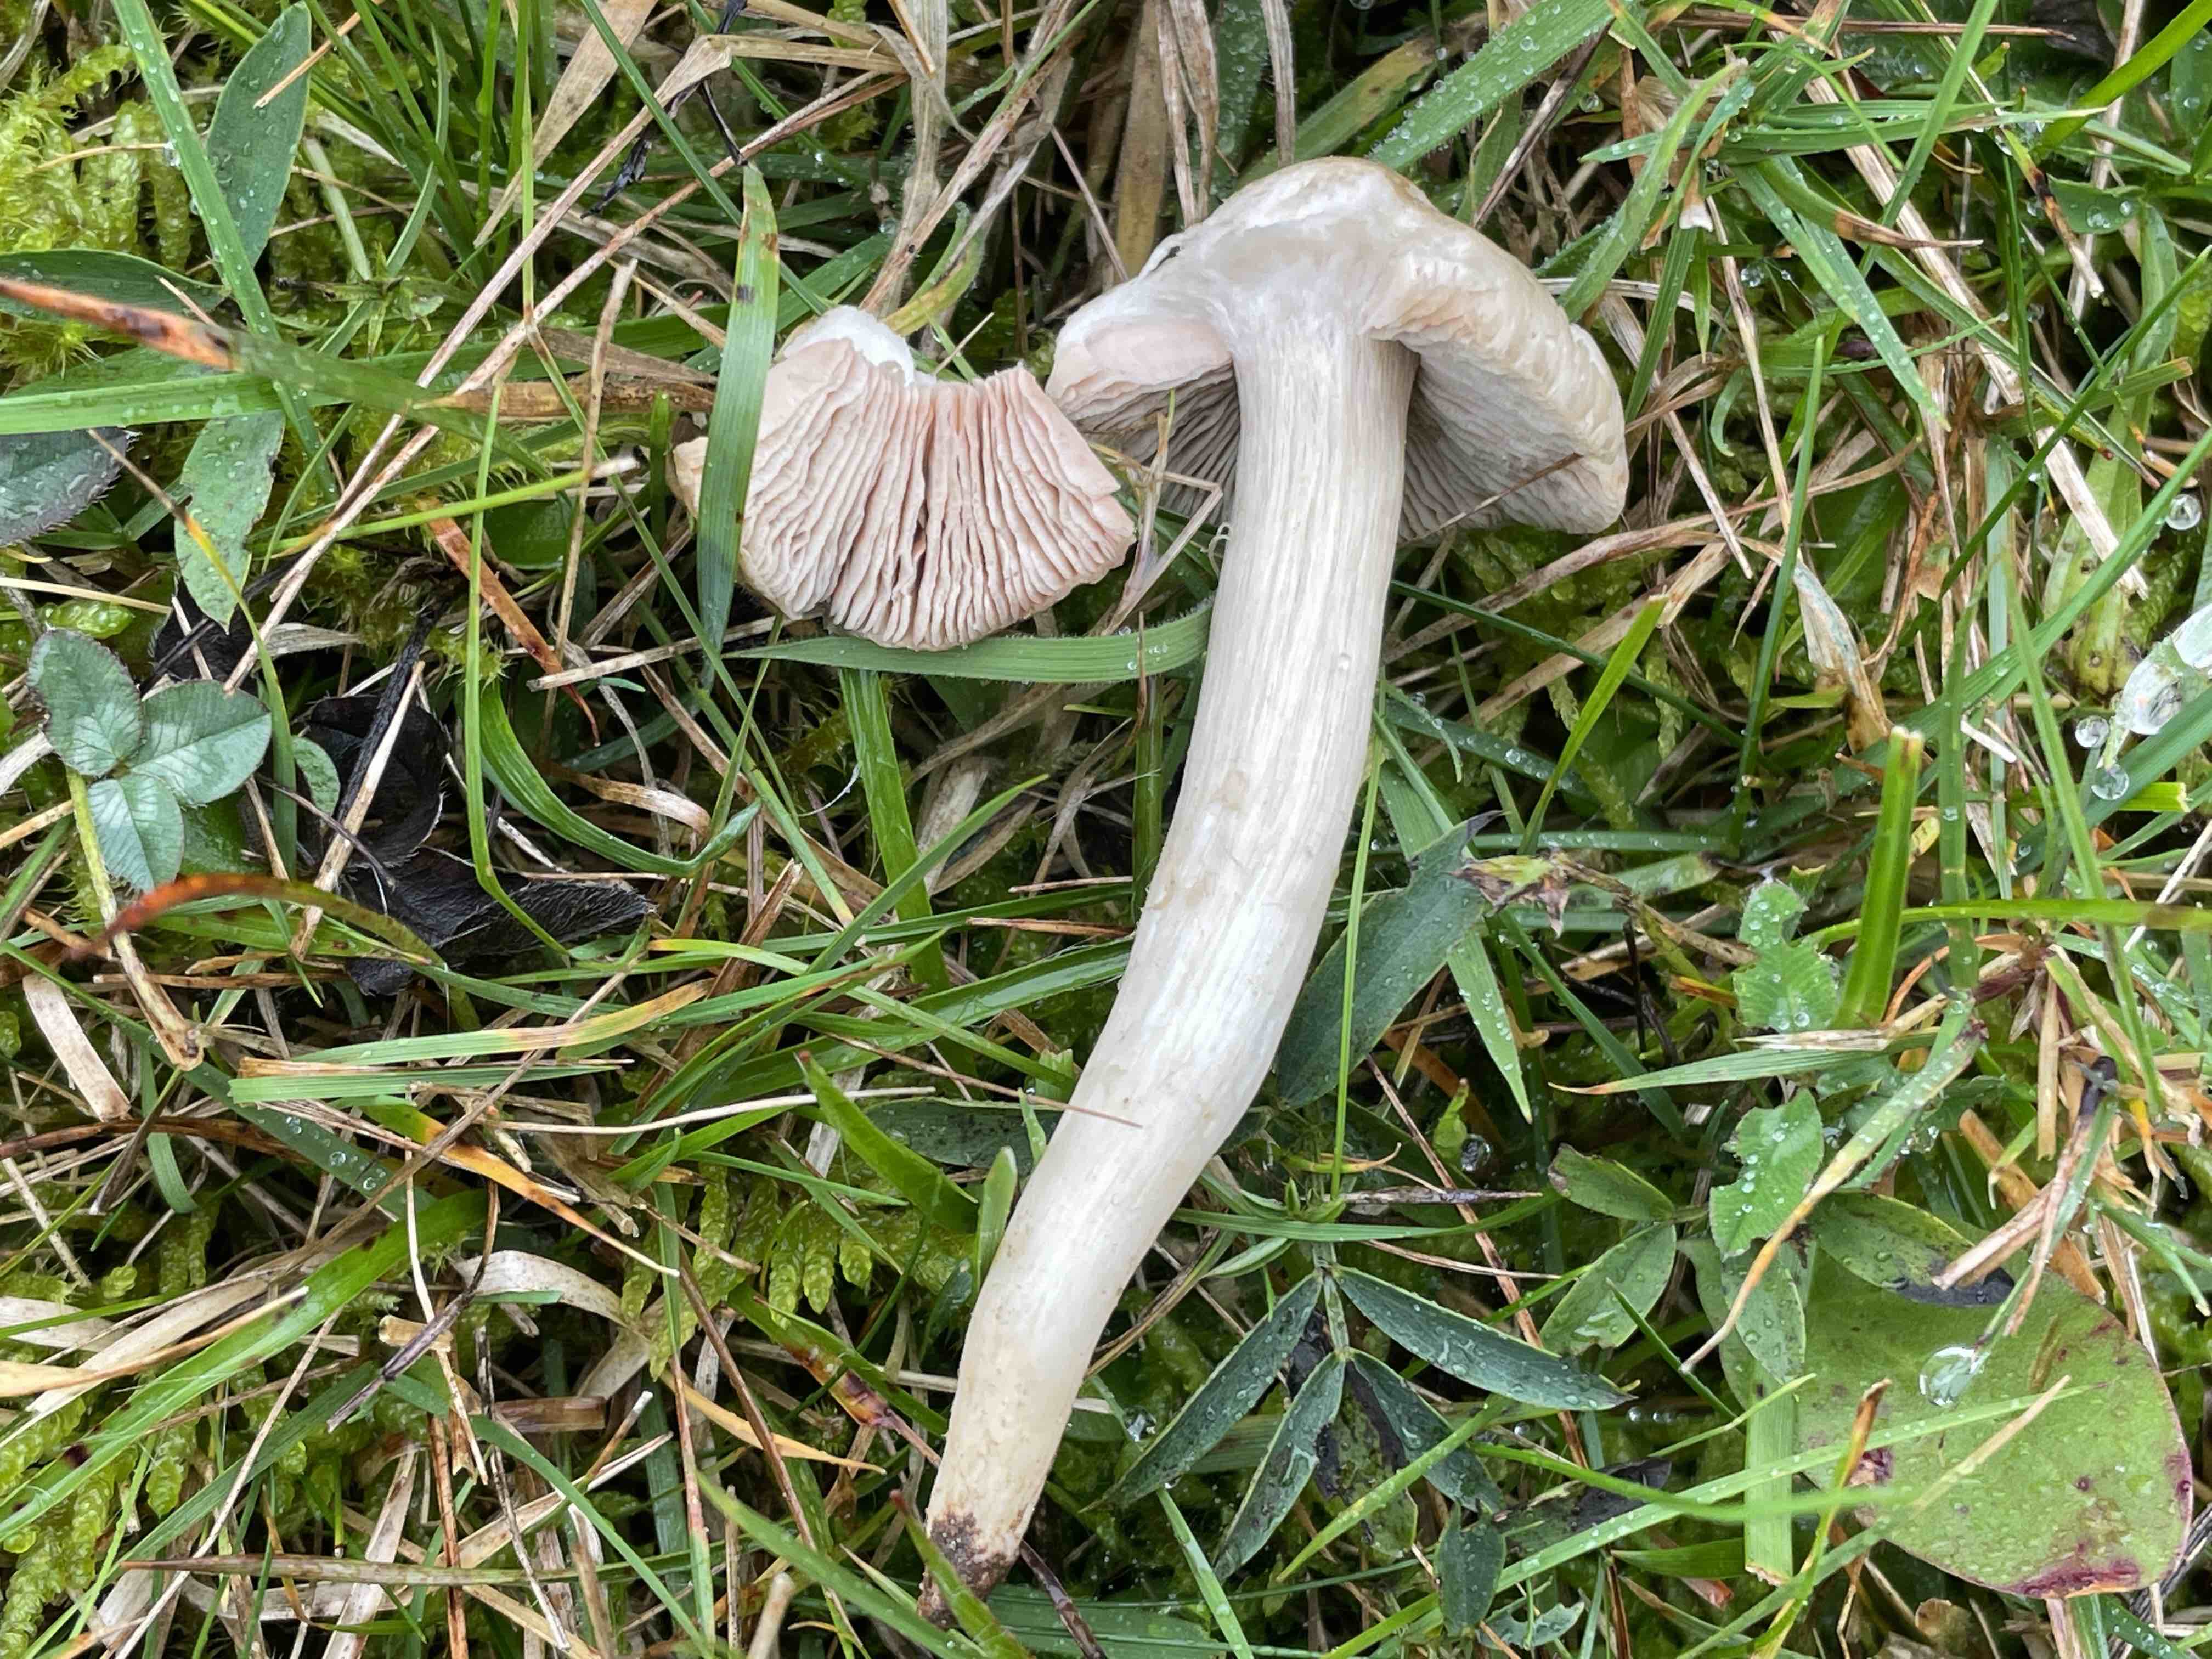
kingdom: Fungi
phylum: Basidiomycota
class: Agaricomycetes
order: Agaricales
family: Entolomataceae
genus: Entoloma
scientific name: Entoloma prunuloides
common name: mel-rødblad
